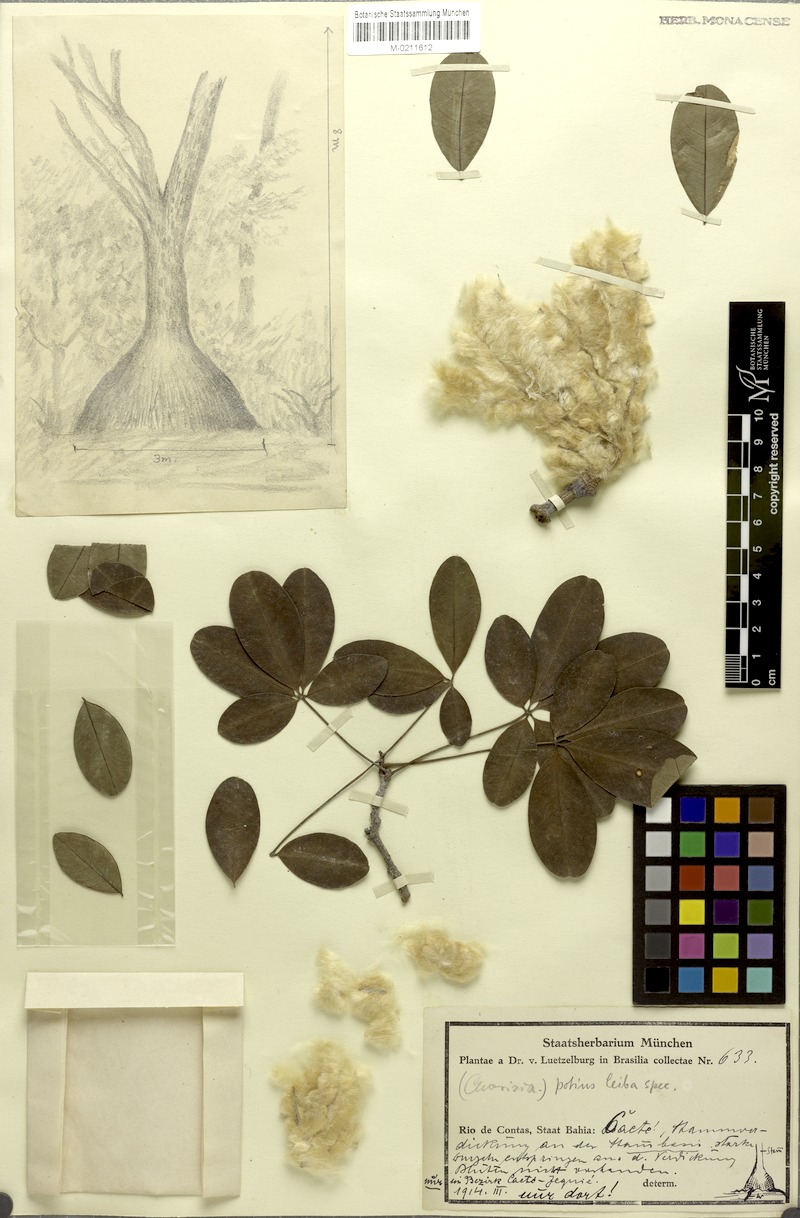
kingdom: Plantae
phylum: Tracheophyta
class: Magnoliopsida
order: Malvales
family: Malvaceae
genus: Ceiba
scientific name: Ceiba
